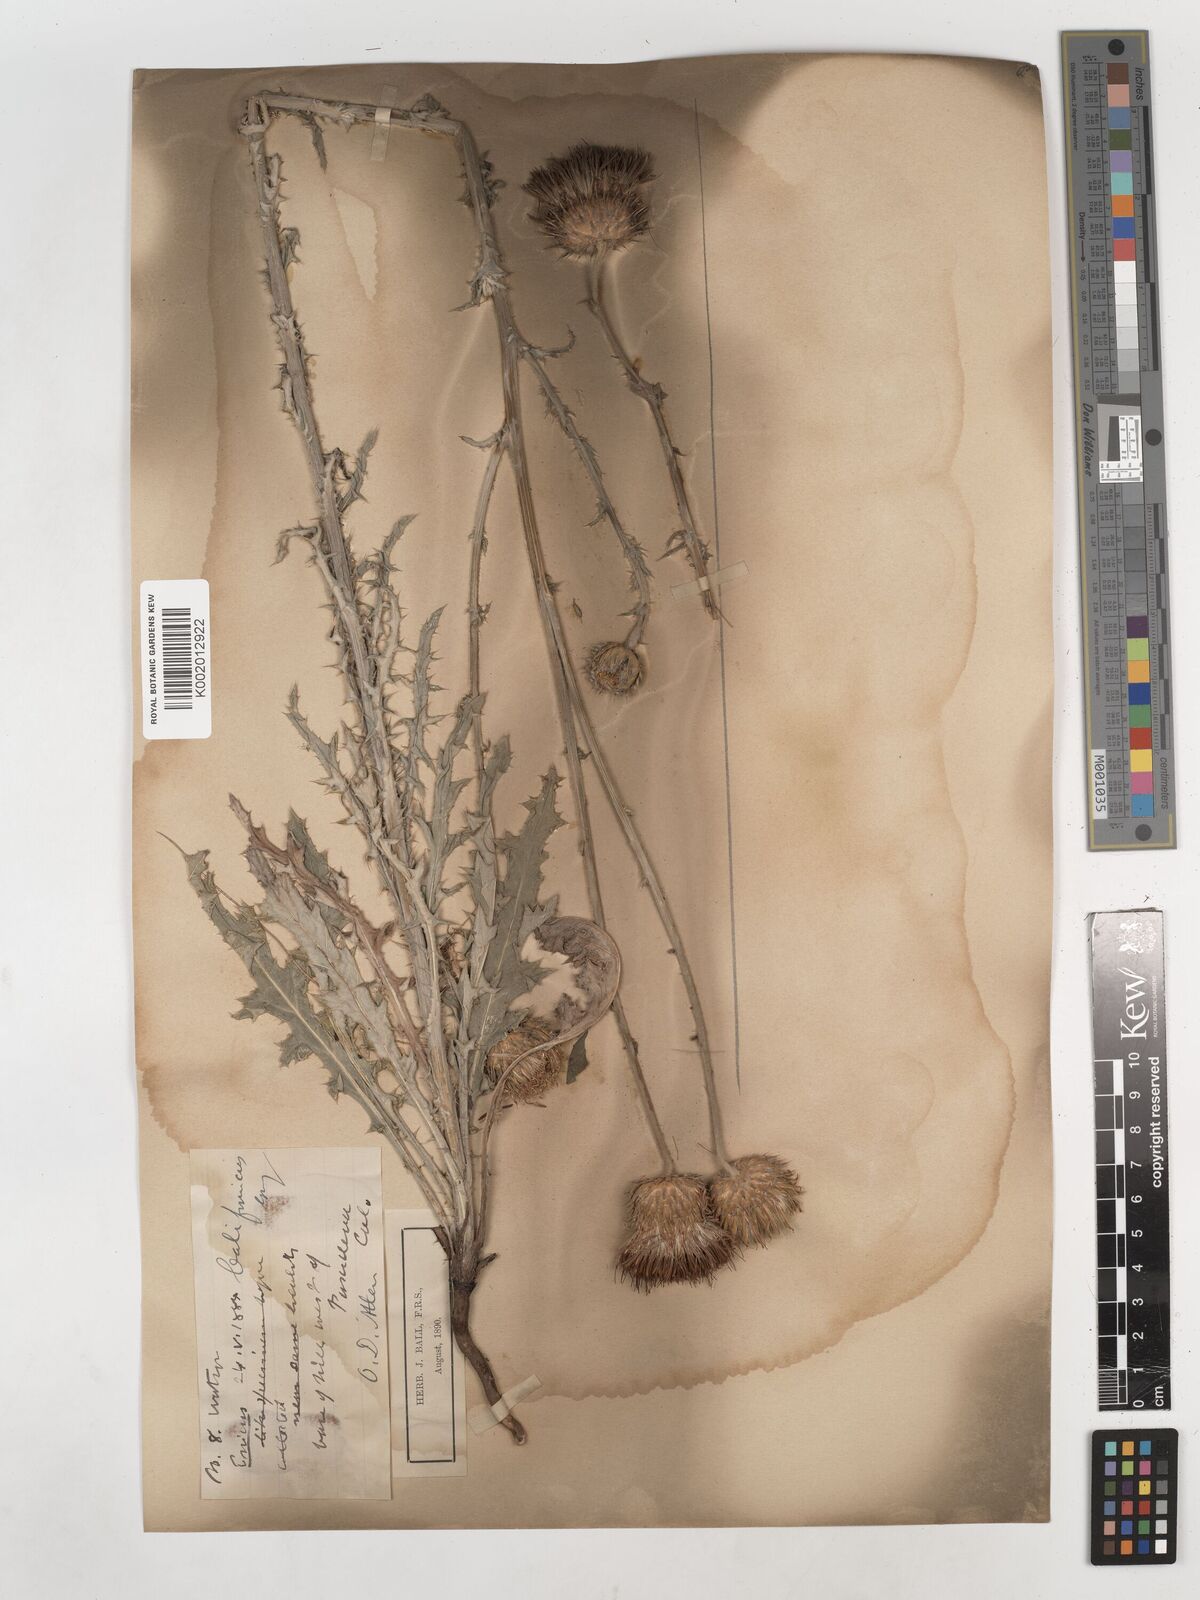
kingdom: Plantae
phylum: Tracheophyta
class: Magnoliopsida
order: Asterales
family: Asteraceae
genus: Cirsium
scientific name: Cirsium occidentale
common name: Western thistle
